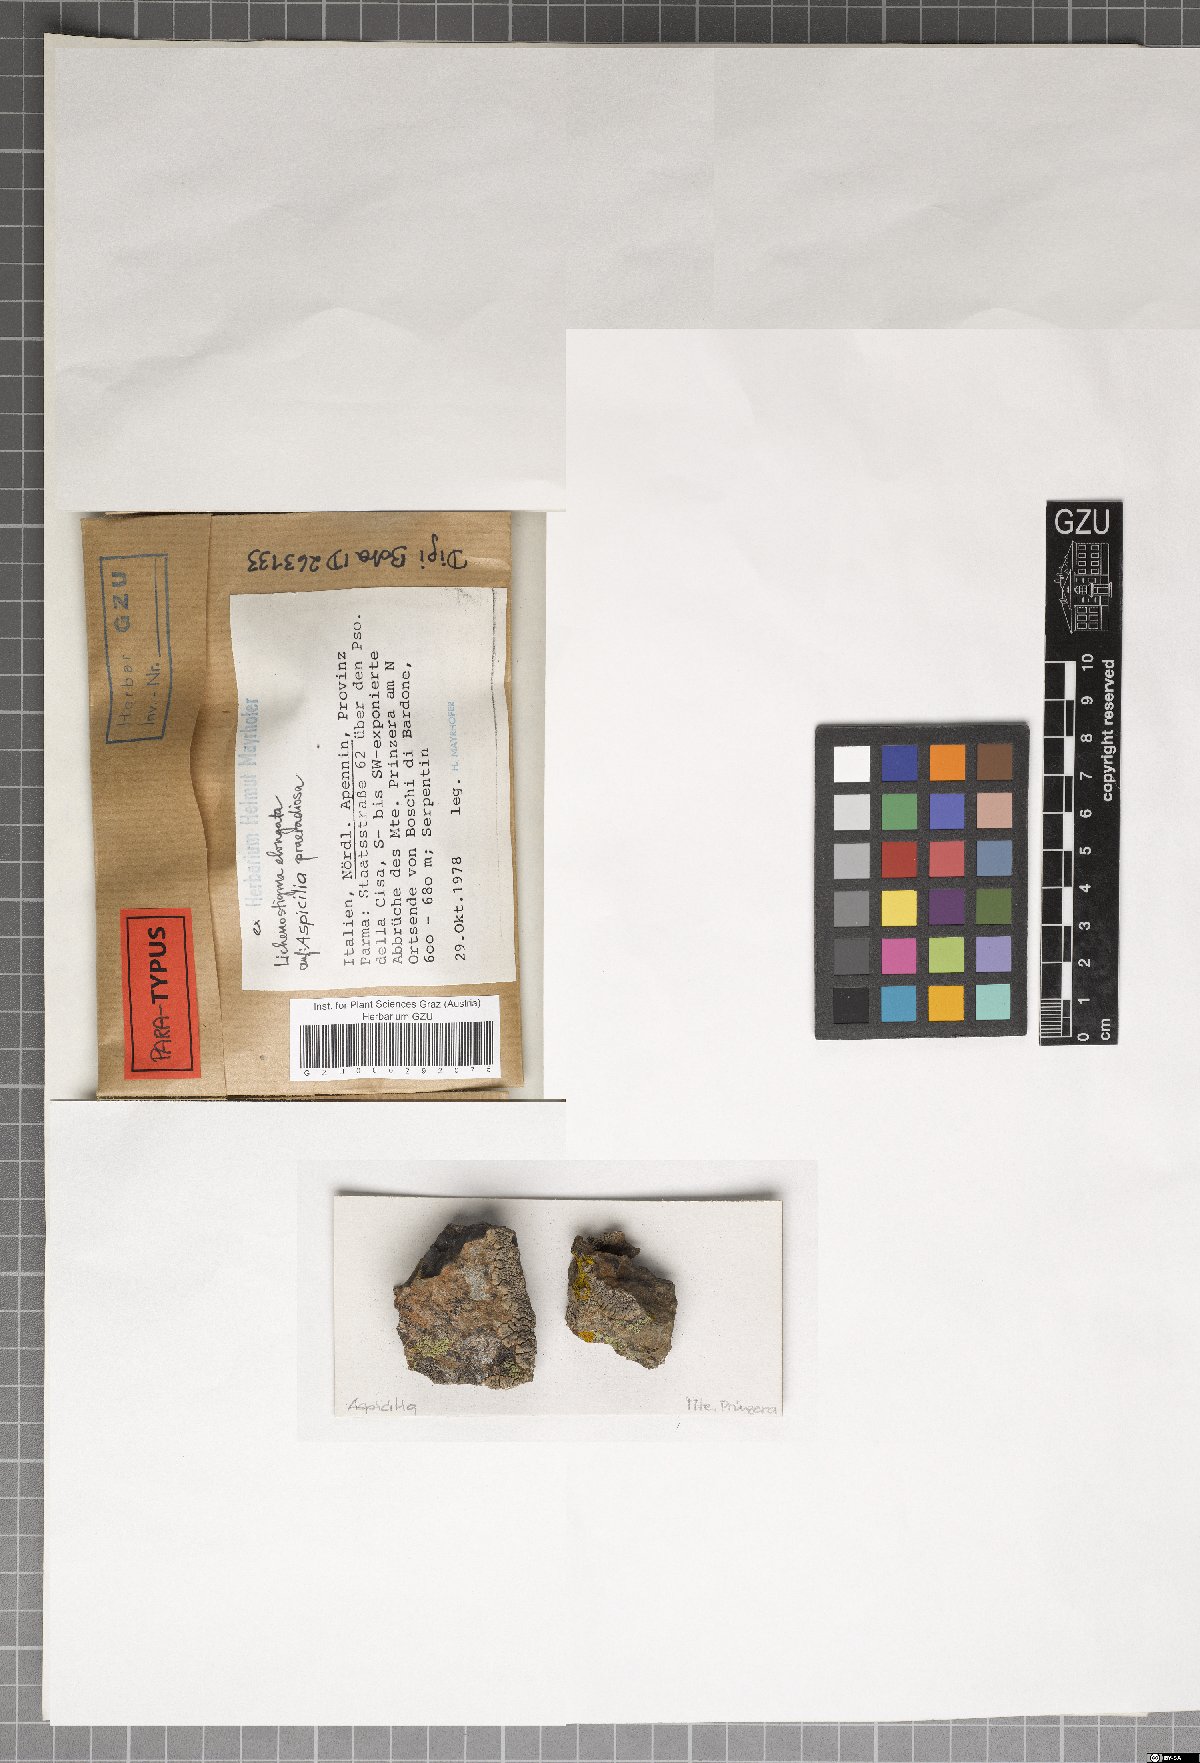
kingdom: Fungi
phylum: Ascomycota
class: Arthoniomycetes
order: Lichenostigmatales
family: Phaeococcomycetaceae
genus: Lichenostigma
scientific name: Lichenostigma elongatum
